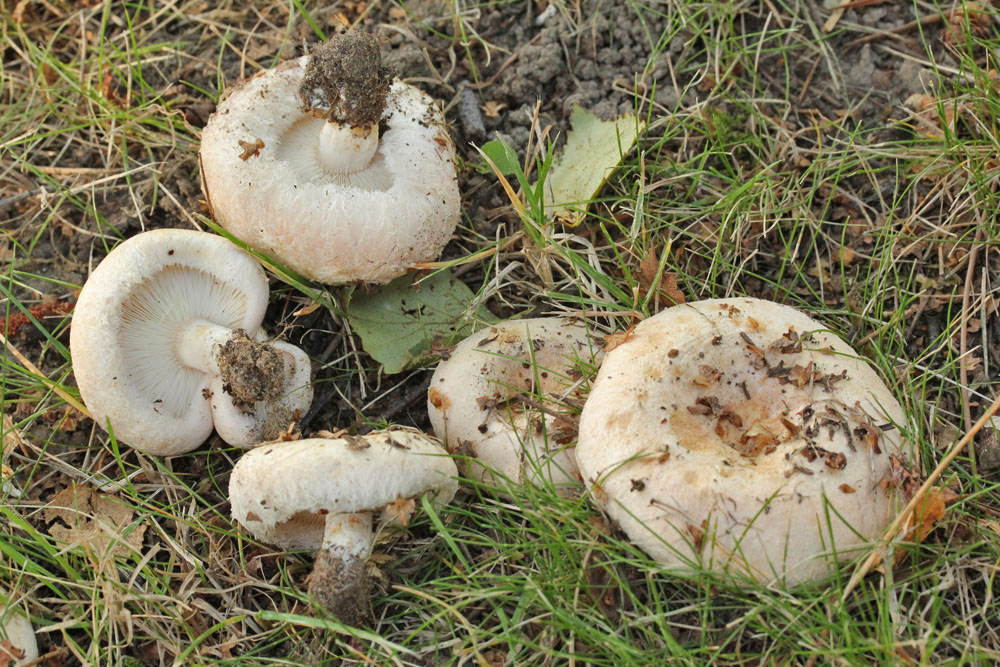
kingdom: Fungi
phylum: Basidiomycota
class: Agaricomycetes
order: Russulales
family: Russulaceae
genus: Lactarius
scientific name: Lactarius pubescens
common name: dunet mælkehat
